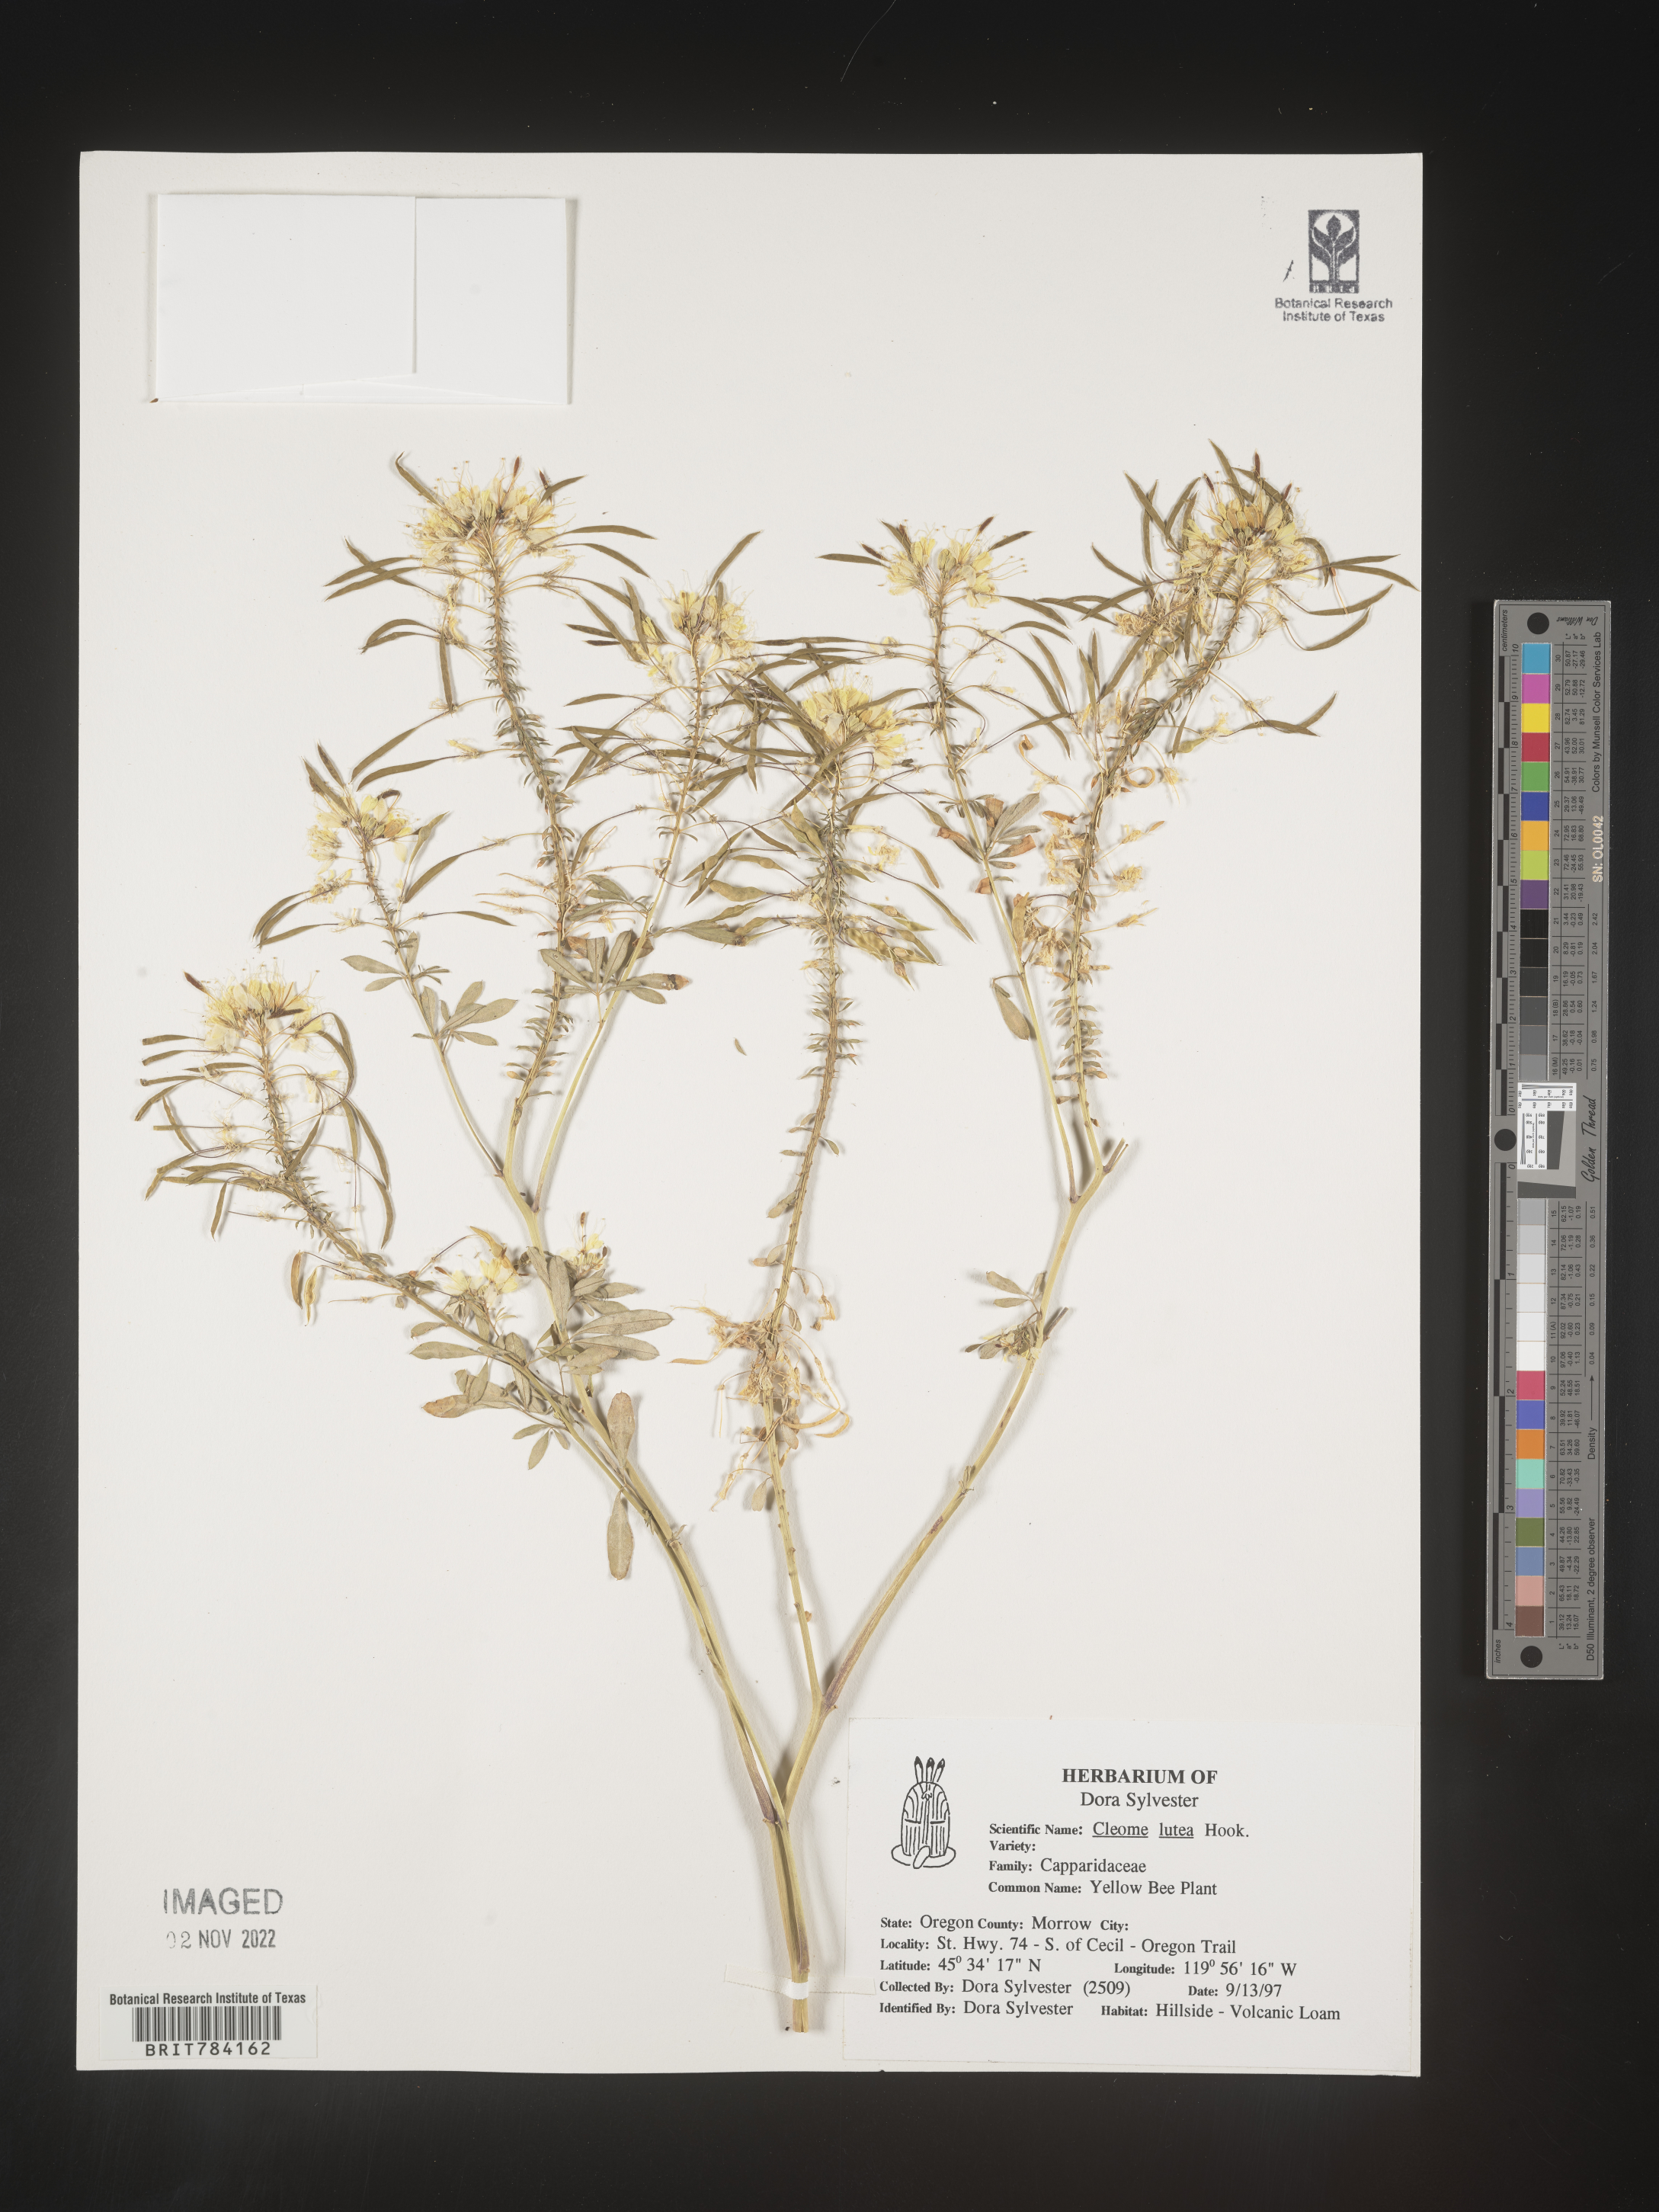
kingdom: Plantae
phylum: Tracheophyta
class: Magnoliopsida
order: Brassicales
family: Cleomaceae
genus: Cleomella
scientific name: Cleomella lutea
